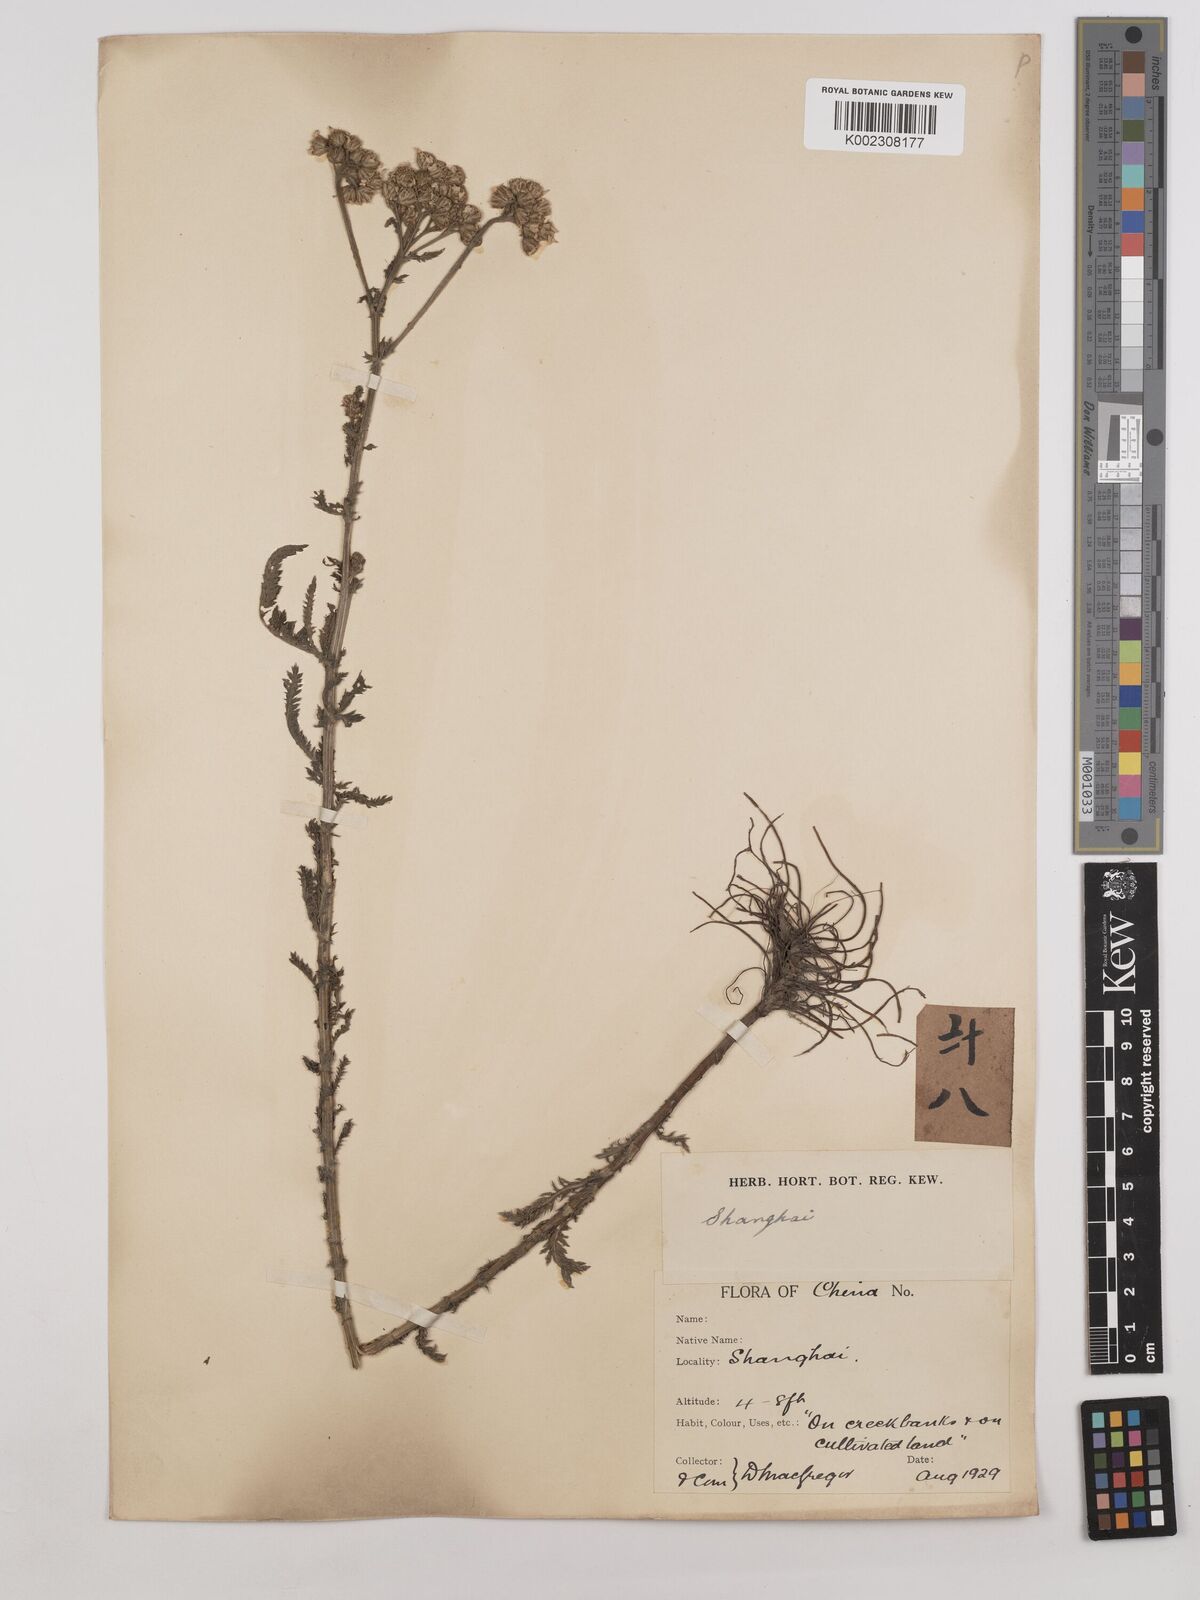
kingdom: Plantae
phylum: Tracheophyta
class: Magnoliopsida
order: Asterales
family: Asteraceae
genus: Achillea
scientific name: Achillea alpina
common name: Siberian yarrow
